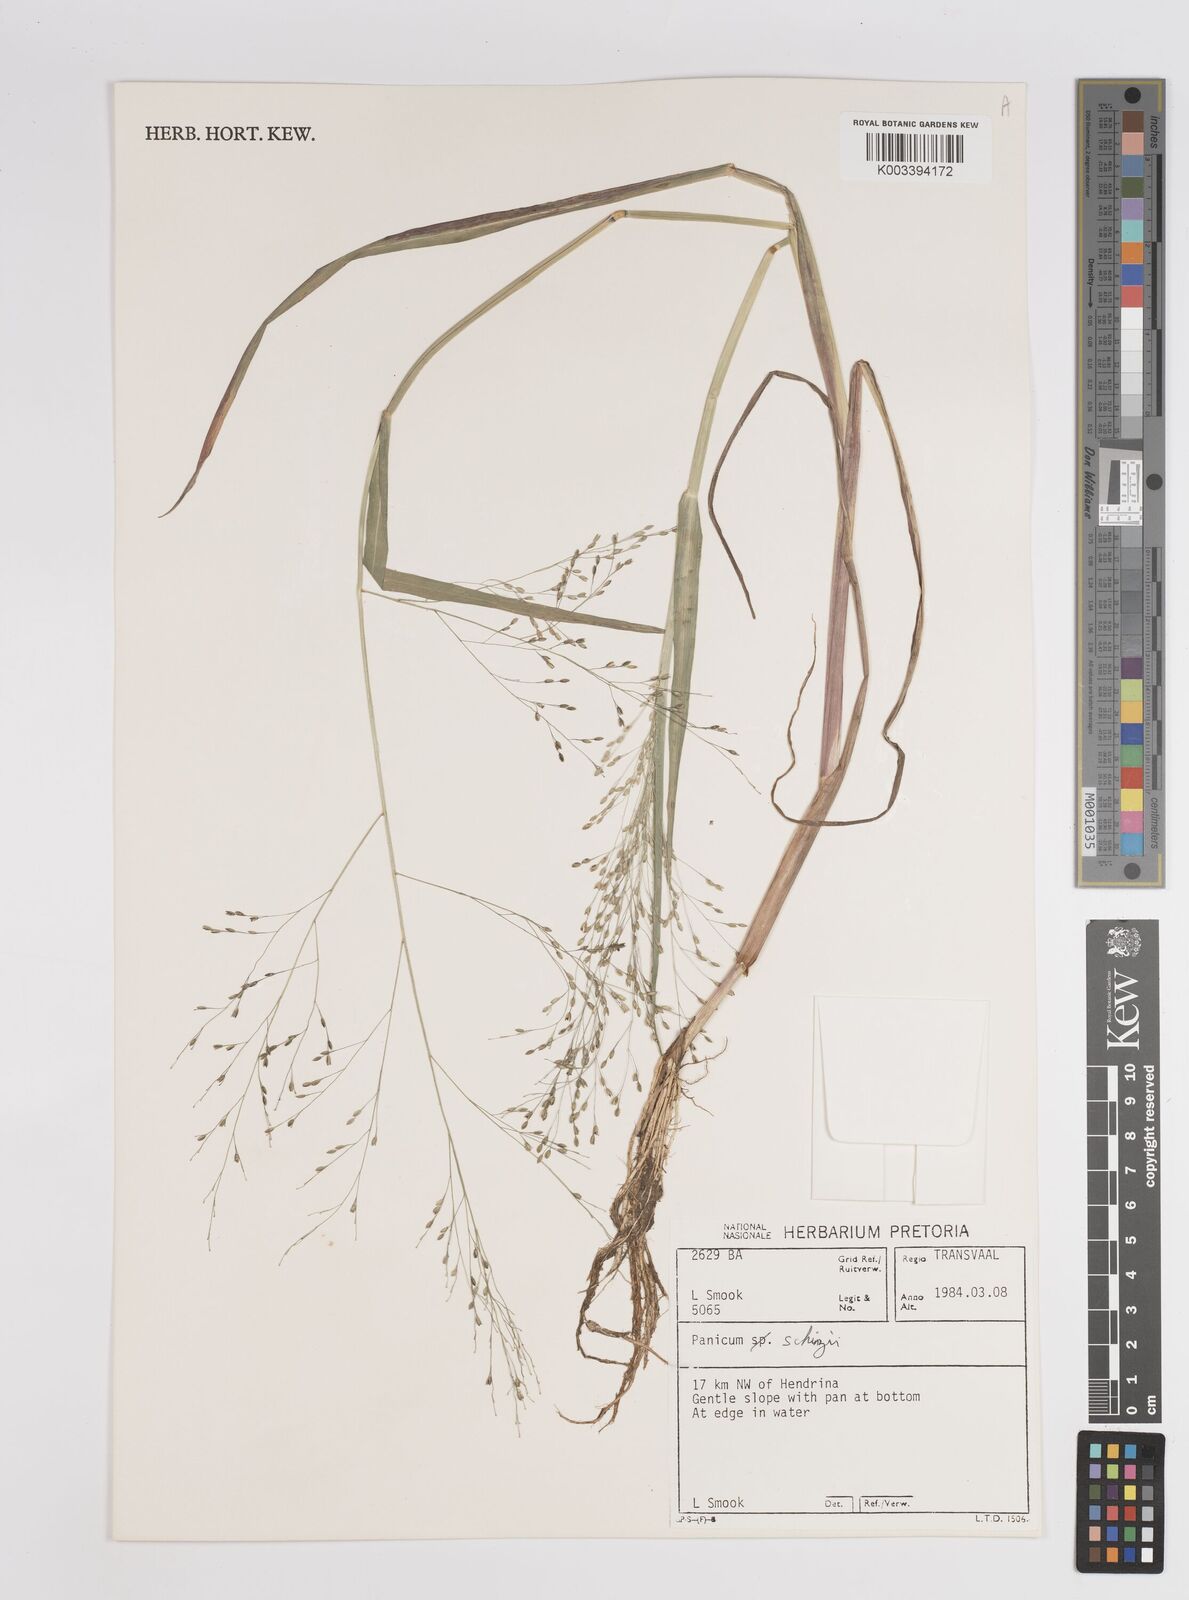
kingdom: Plantae
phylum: Tracheophyta
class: Liliopsida
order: Poales
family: Poaceae
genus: Panicum
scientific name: Panicum schinzii
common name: Sweet grass
